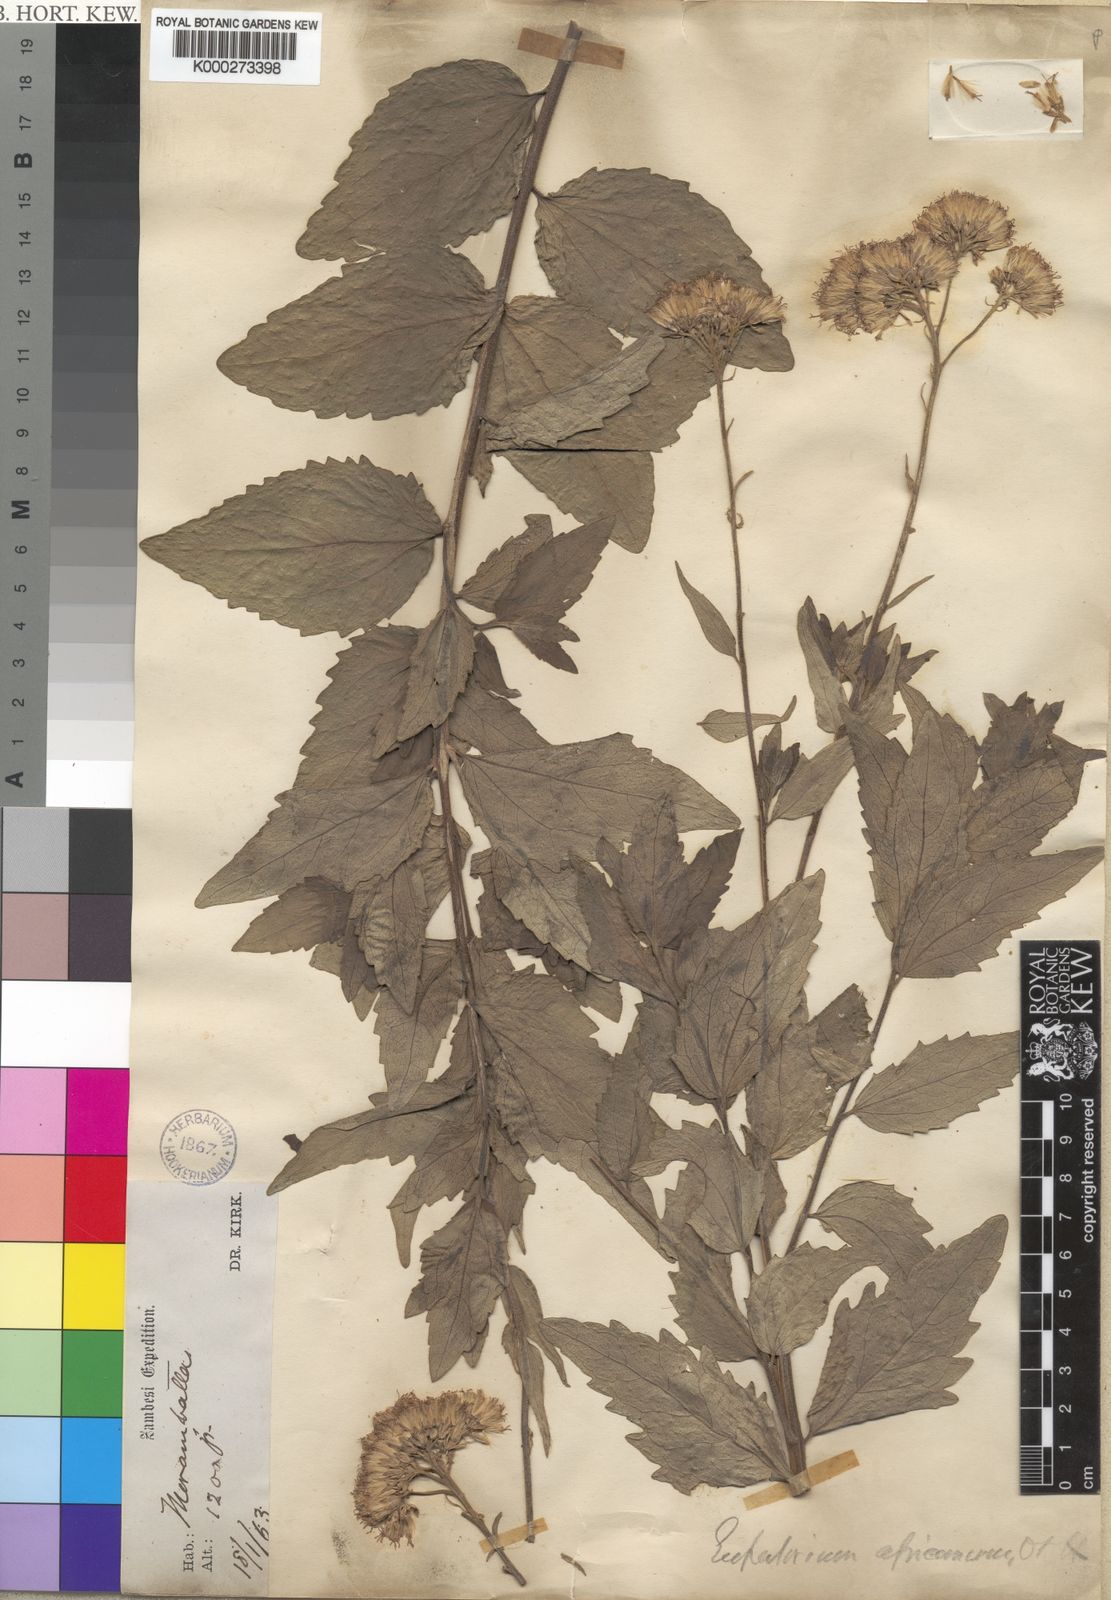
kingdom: Plantae
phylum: Tracheophyta
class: Magnoliopsida
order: Asterales
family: Asteraceae
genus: Stomatanthes
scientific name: Stomatanthes africanus
